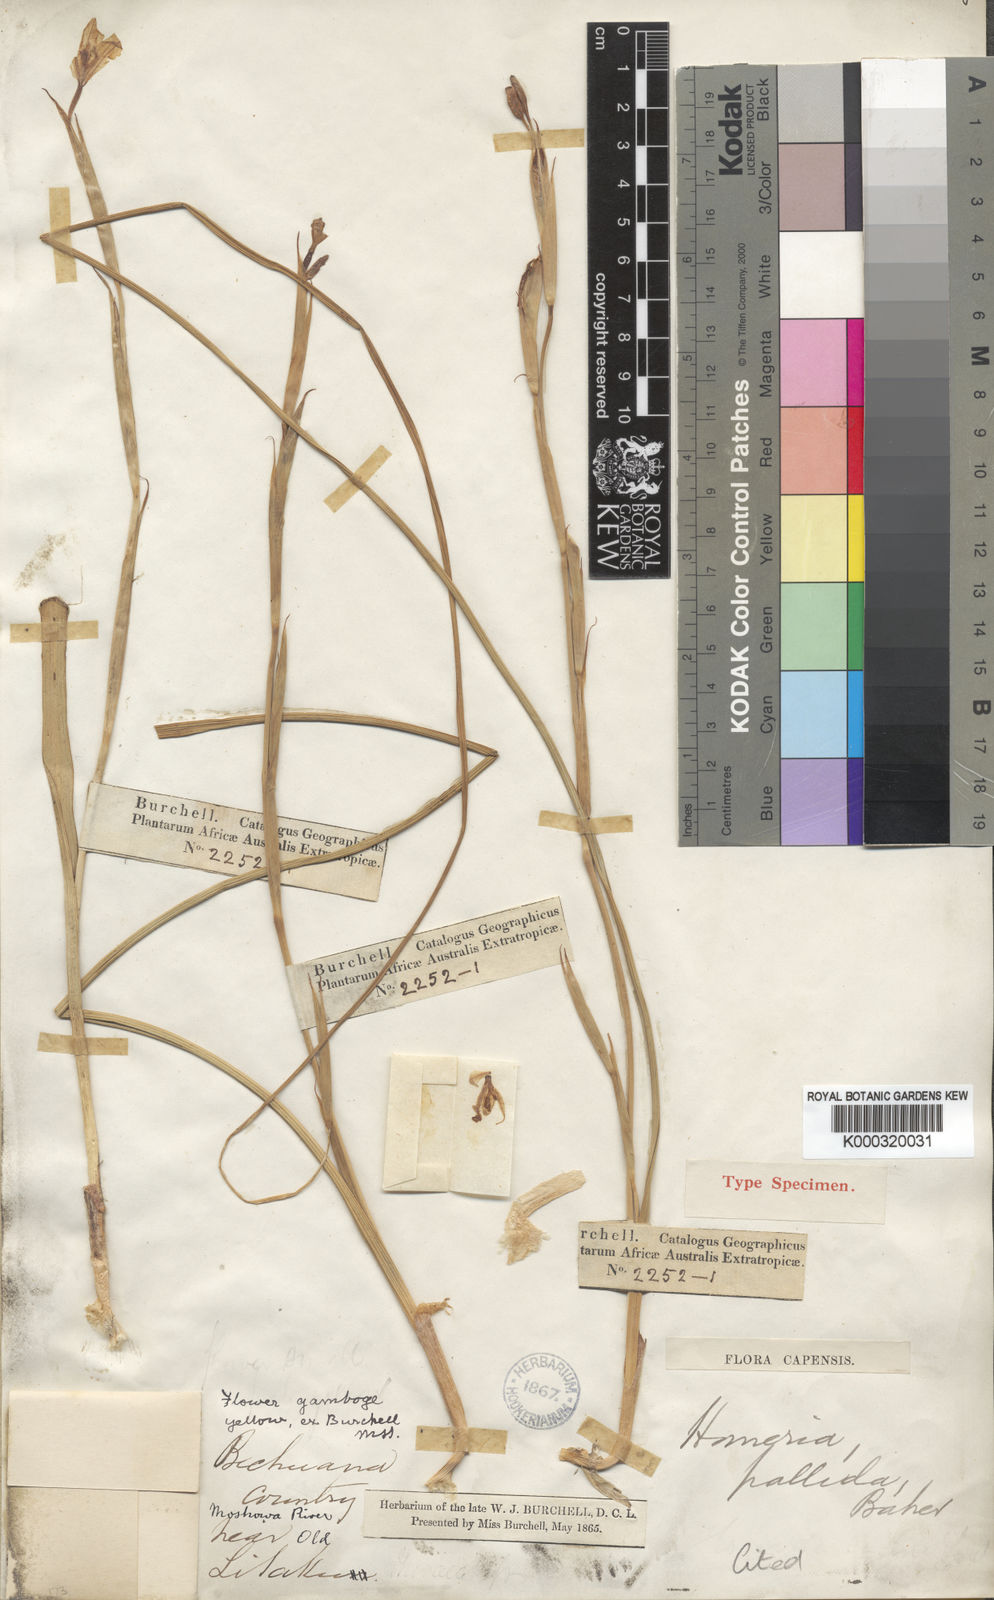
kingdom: Plantae
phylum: Tracheophyta
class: Liliopsida
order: Asparagales
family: Iridaceae
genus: Moraea
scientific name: Moraea pallida
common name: Yellow tulp
